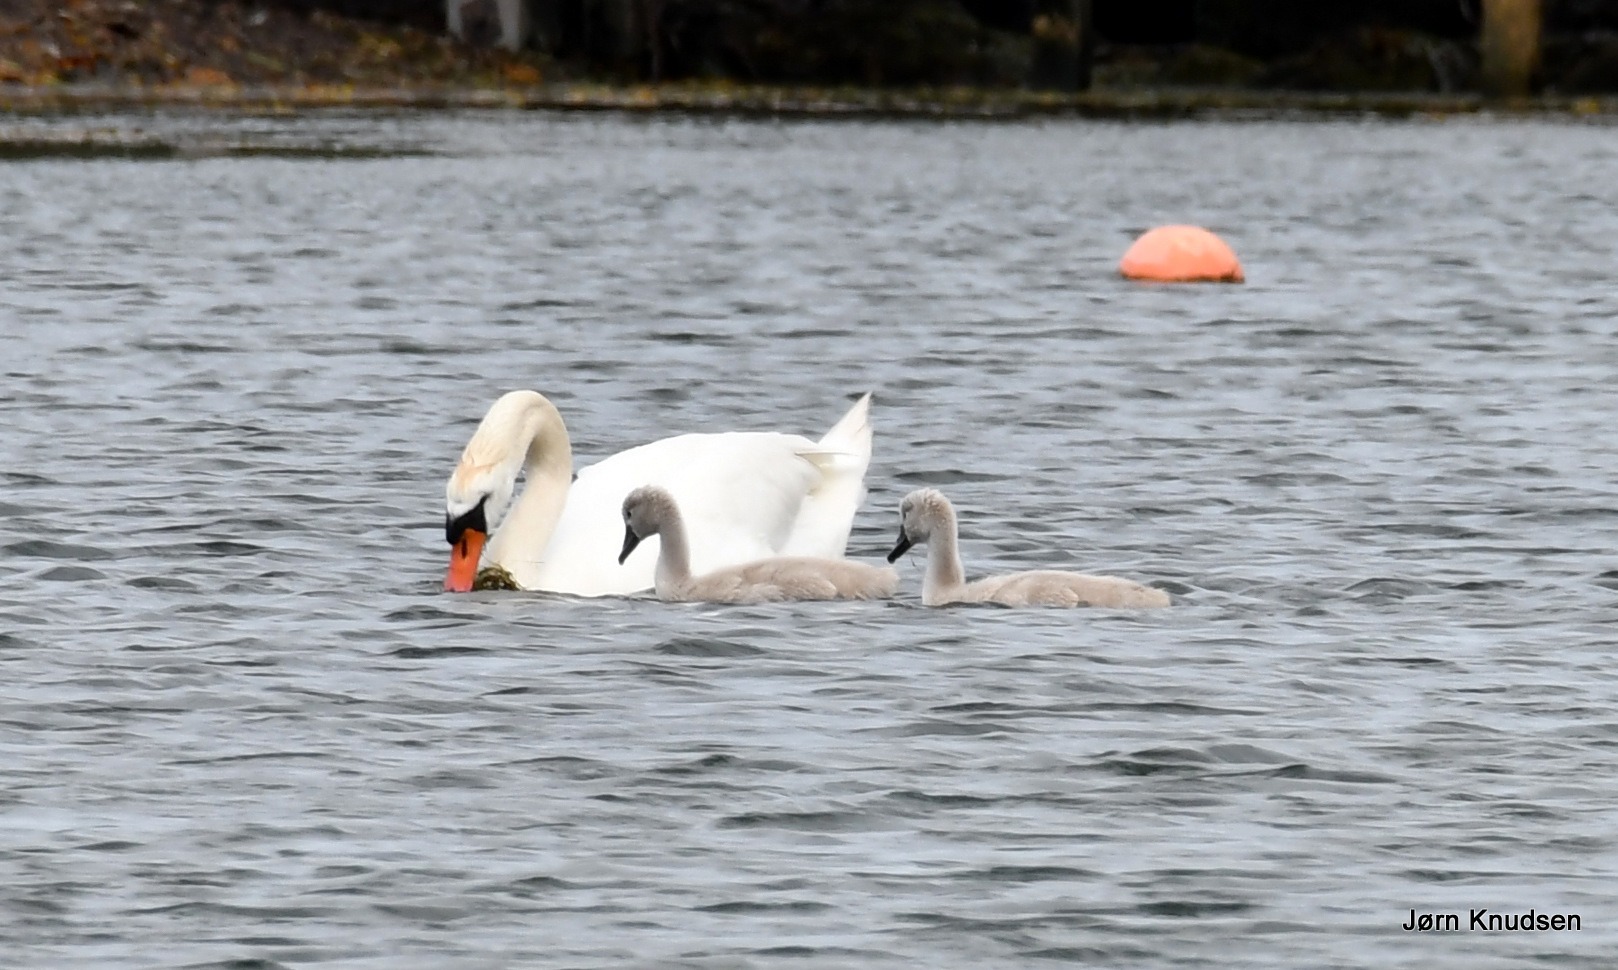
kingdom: Animalia
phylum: Chordata
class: Aves
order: Anseriformes
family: Anatidae
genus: Cygnus
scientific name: Cygnus olor
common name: Knopsvane
